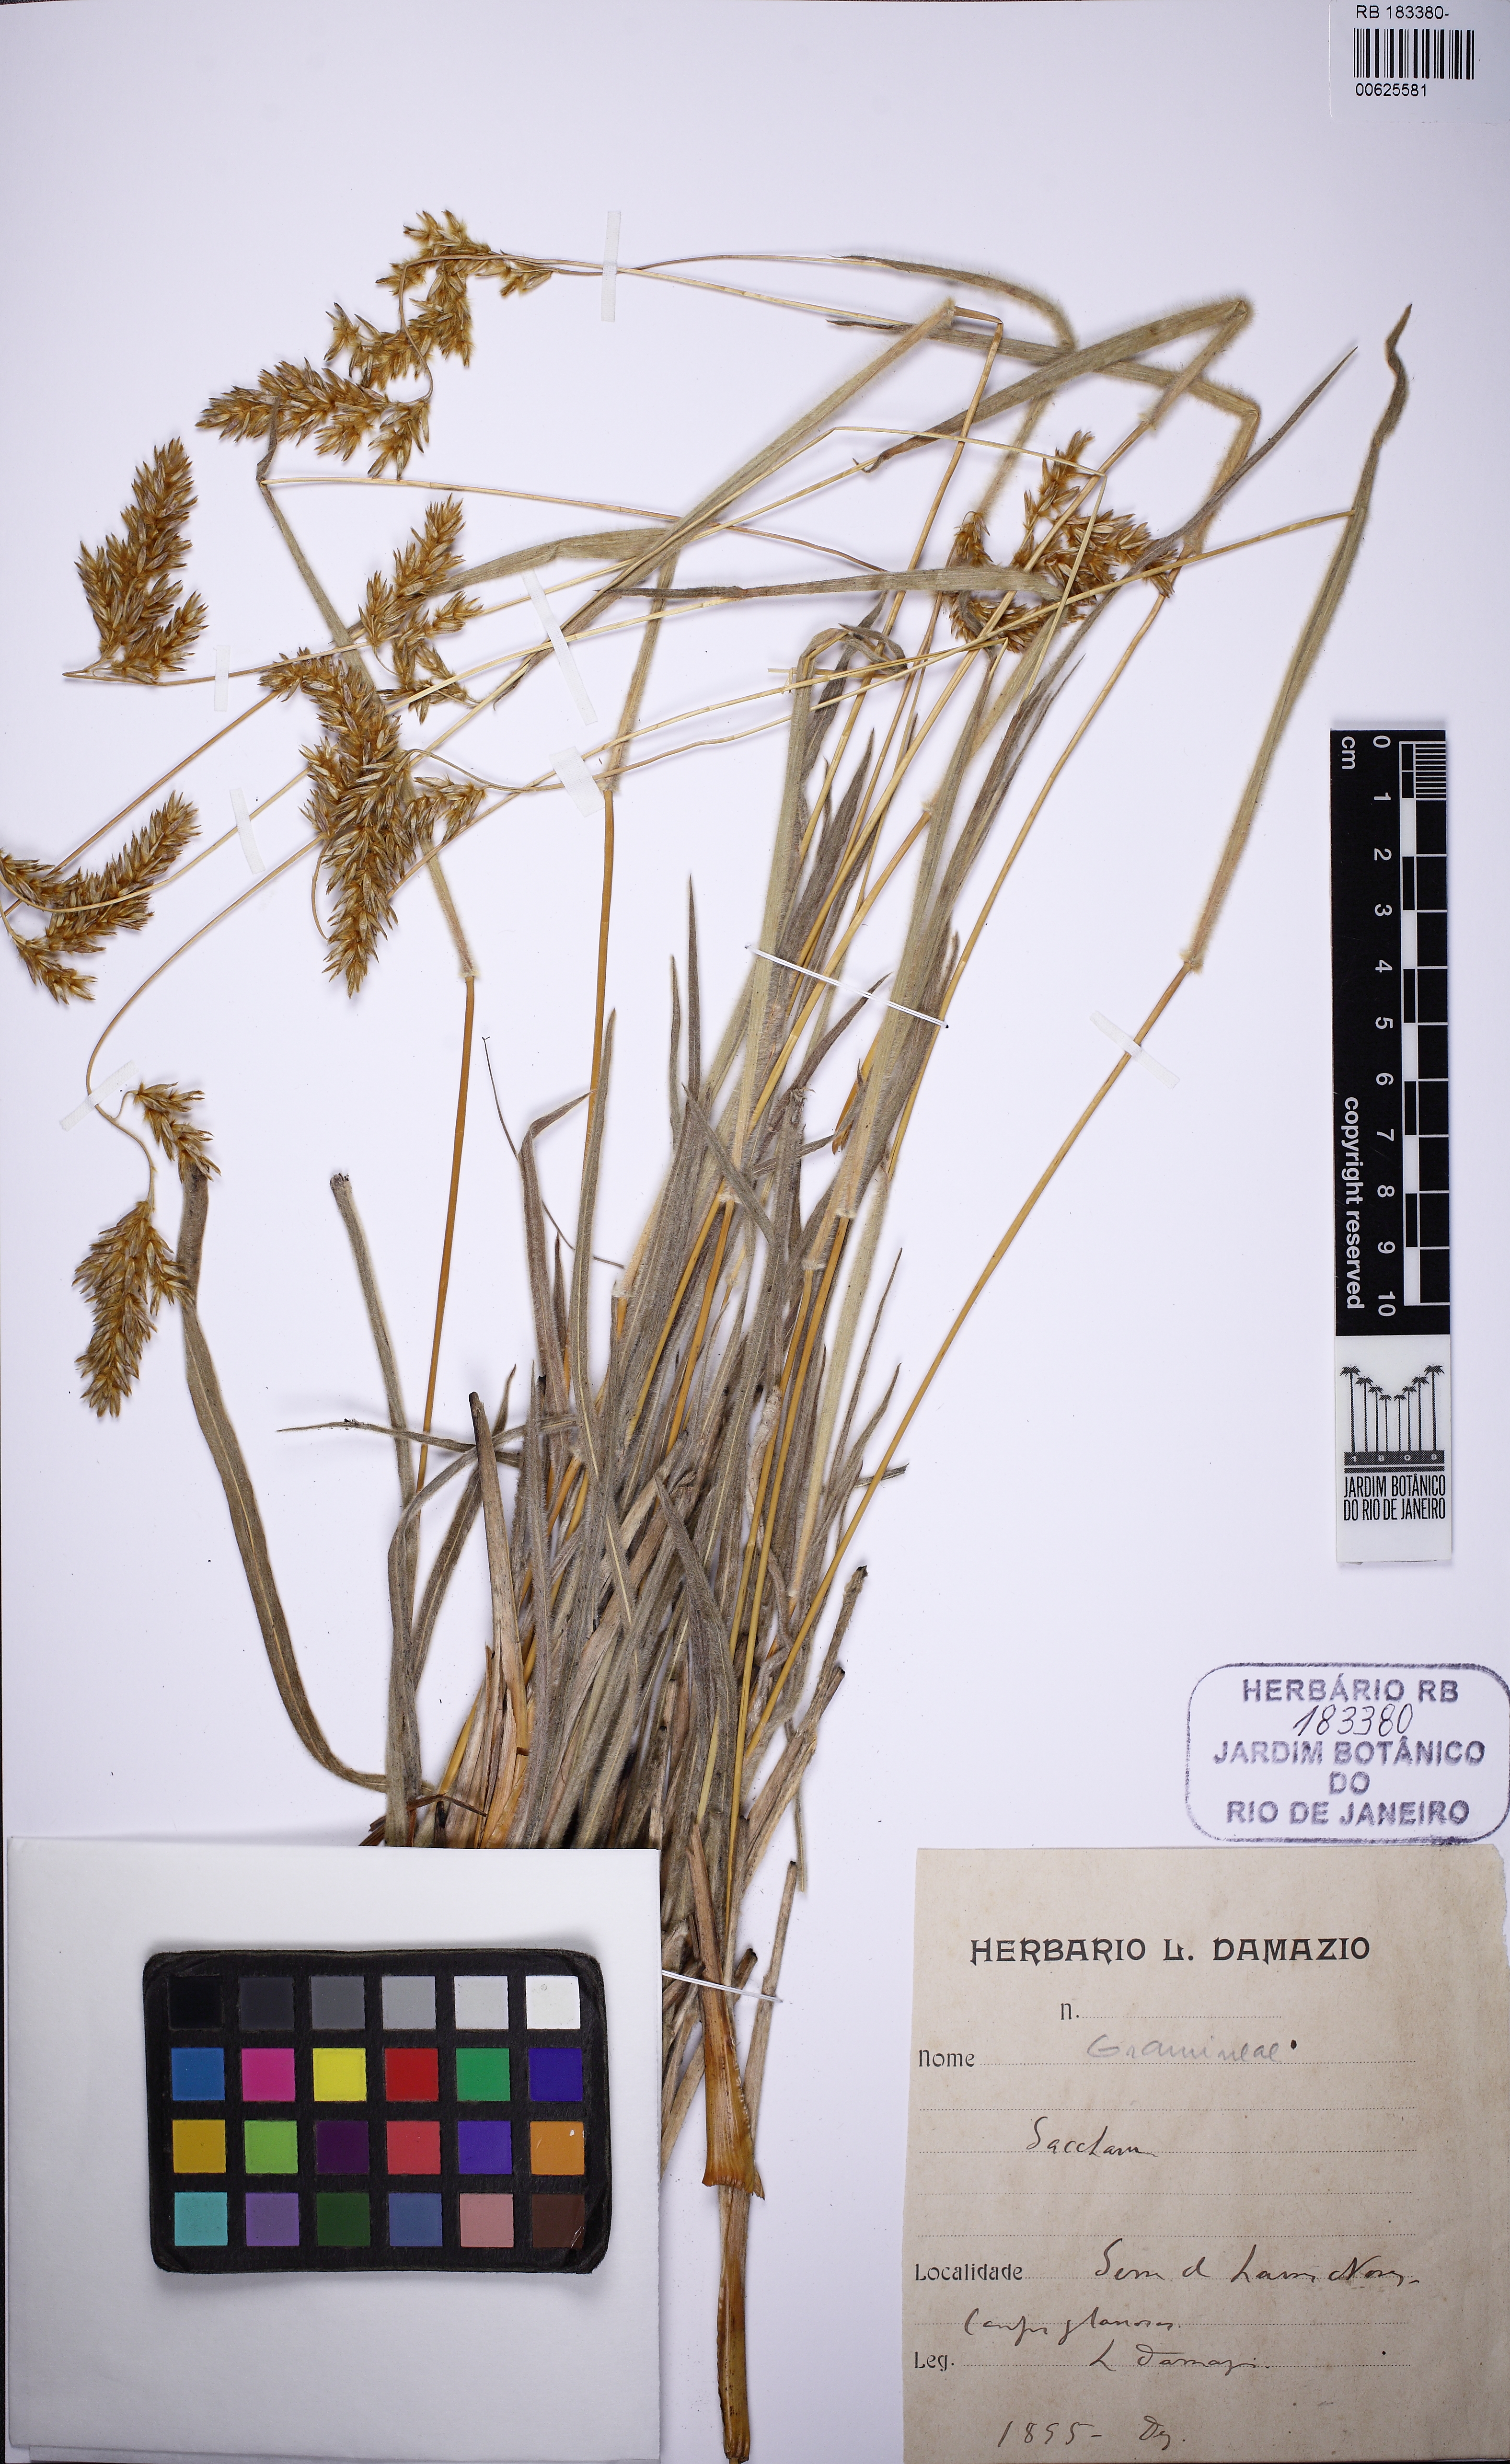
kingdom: Plantae
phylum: Tracheophyta
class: Liliopsida
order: Poales
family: Poaceae
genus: Saccharum
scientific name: Saccharum
